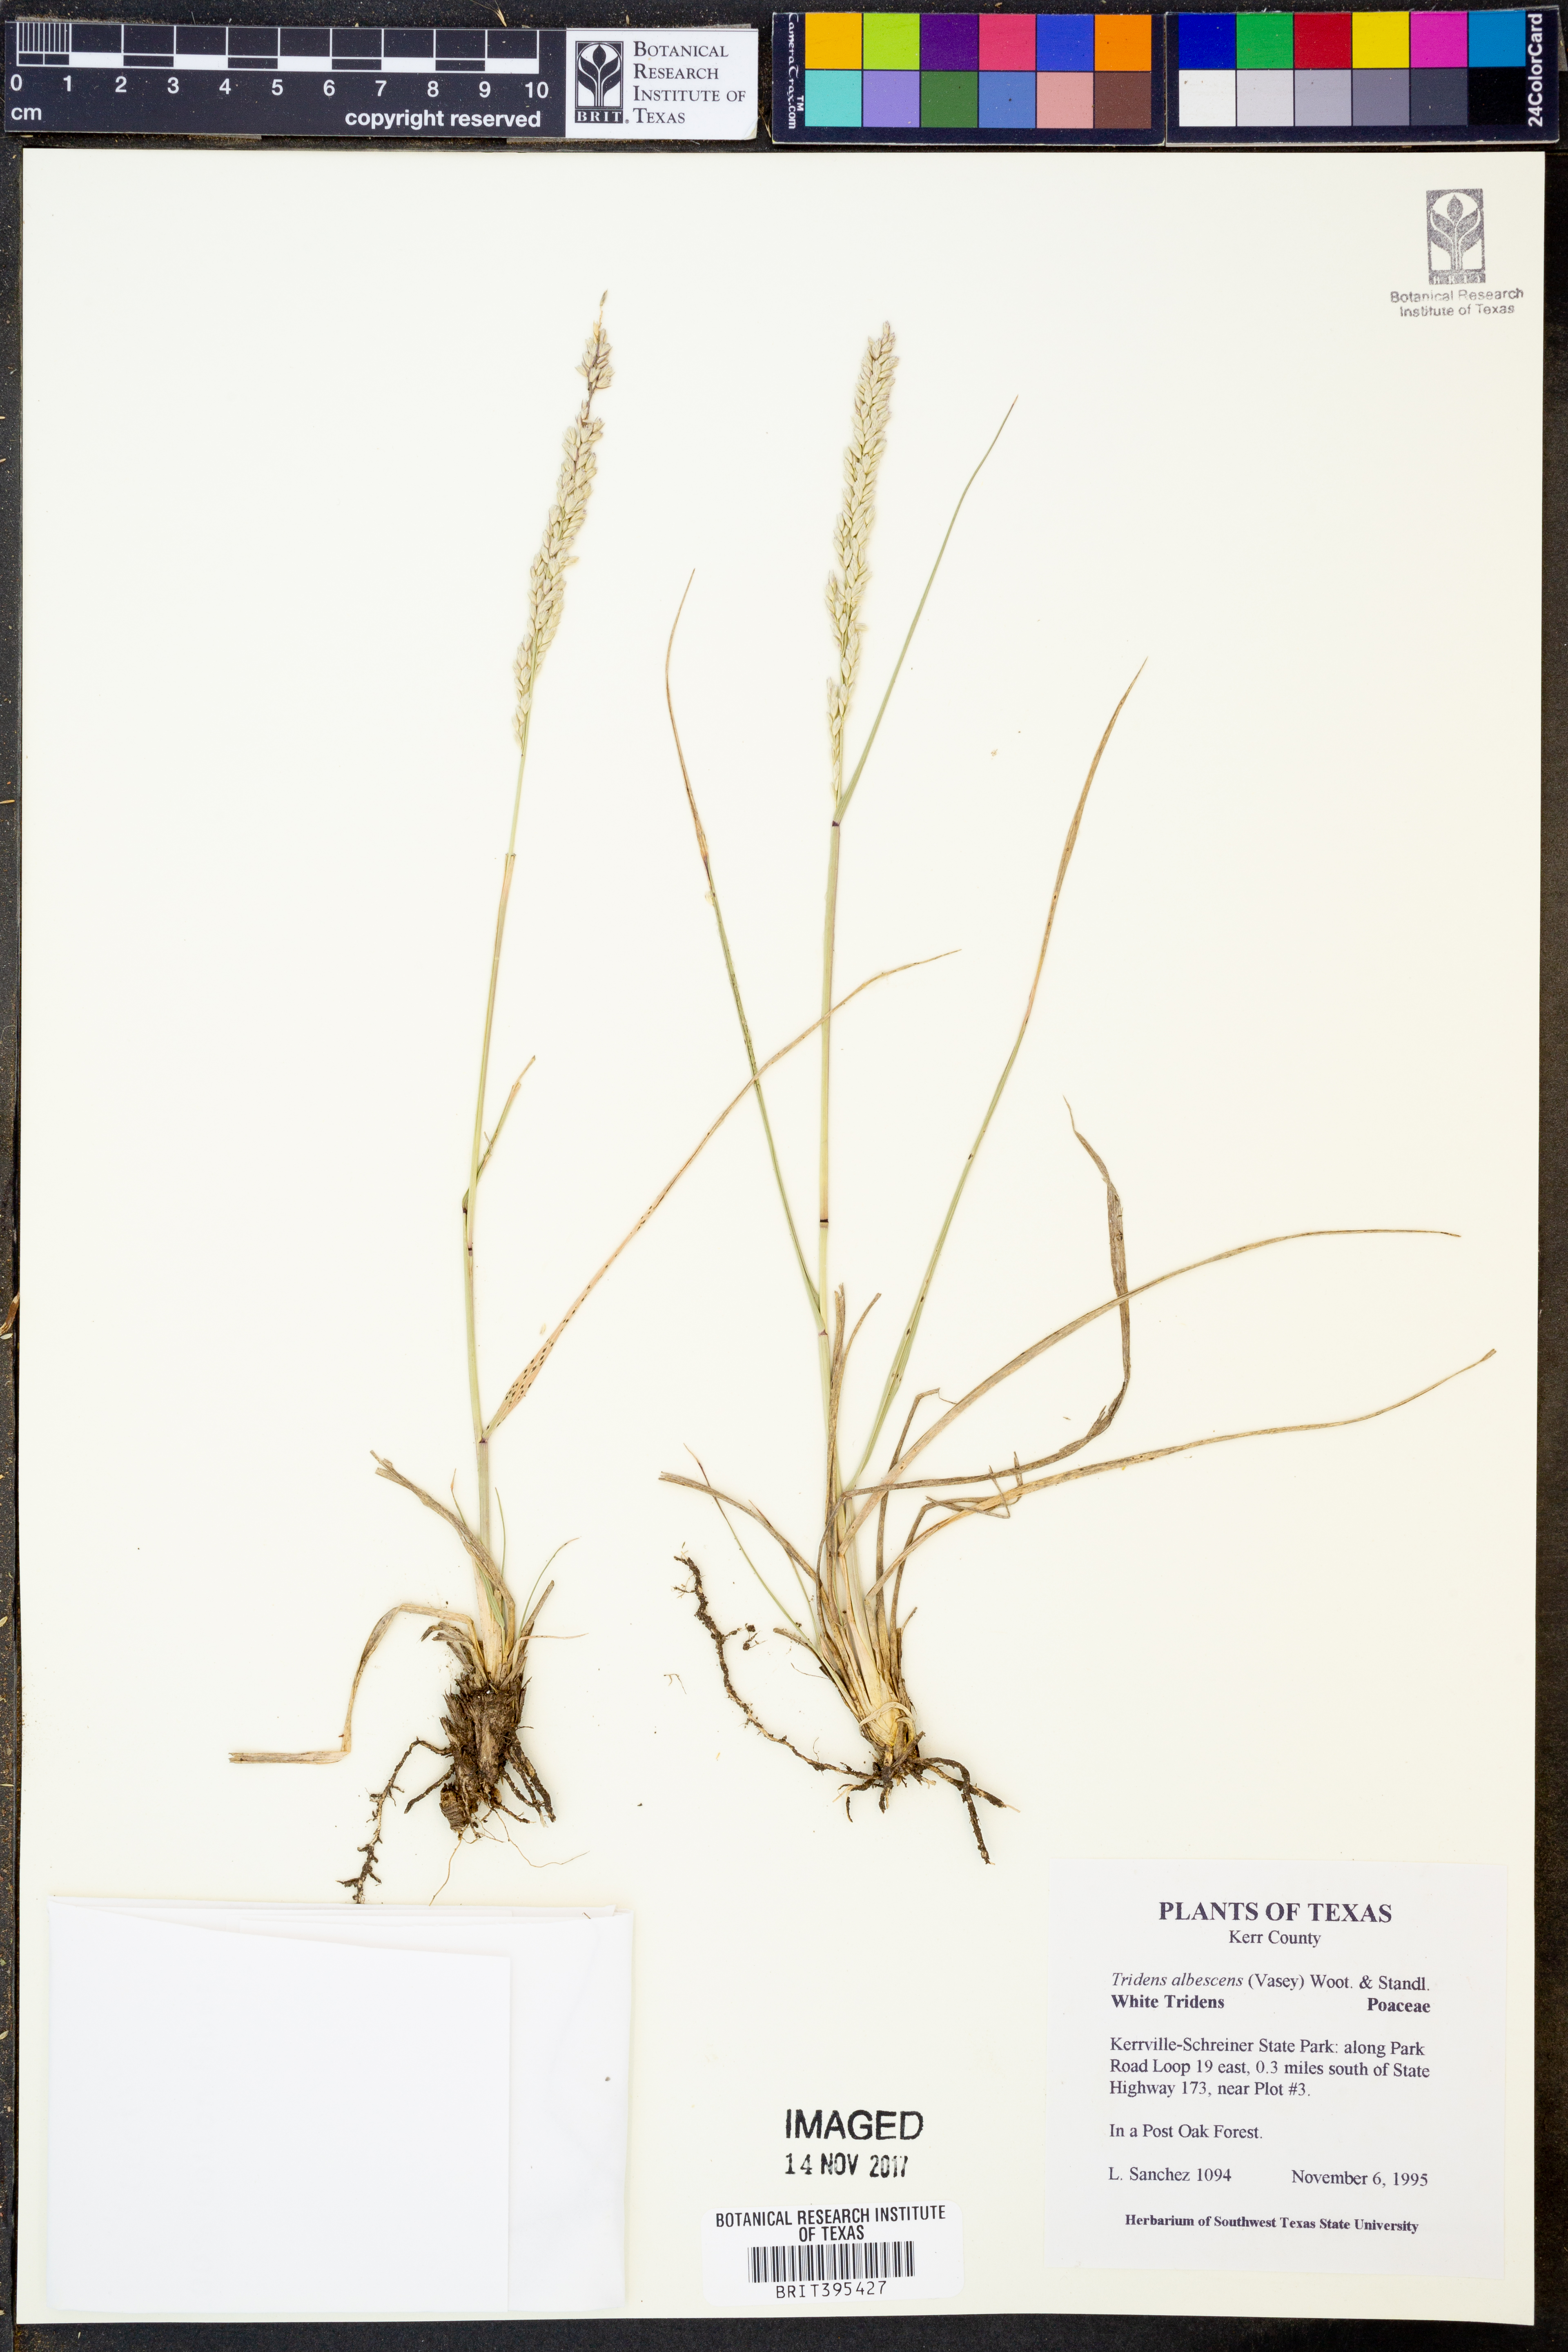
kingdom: Plantae
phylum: Tracheophyta
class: Liliopsida
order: Poales
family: Poaceae
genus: Tridens
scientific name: Tridens albescens
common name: White tridens
